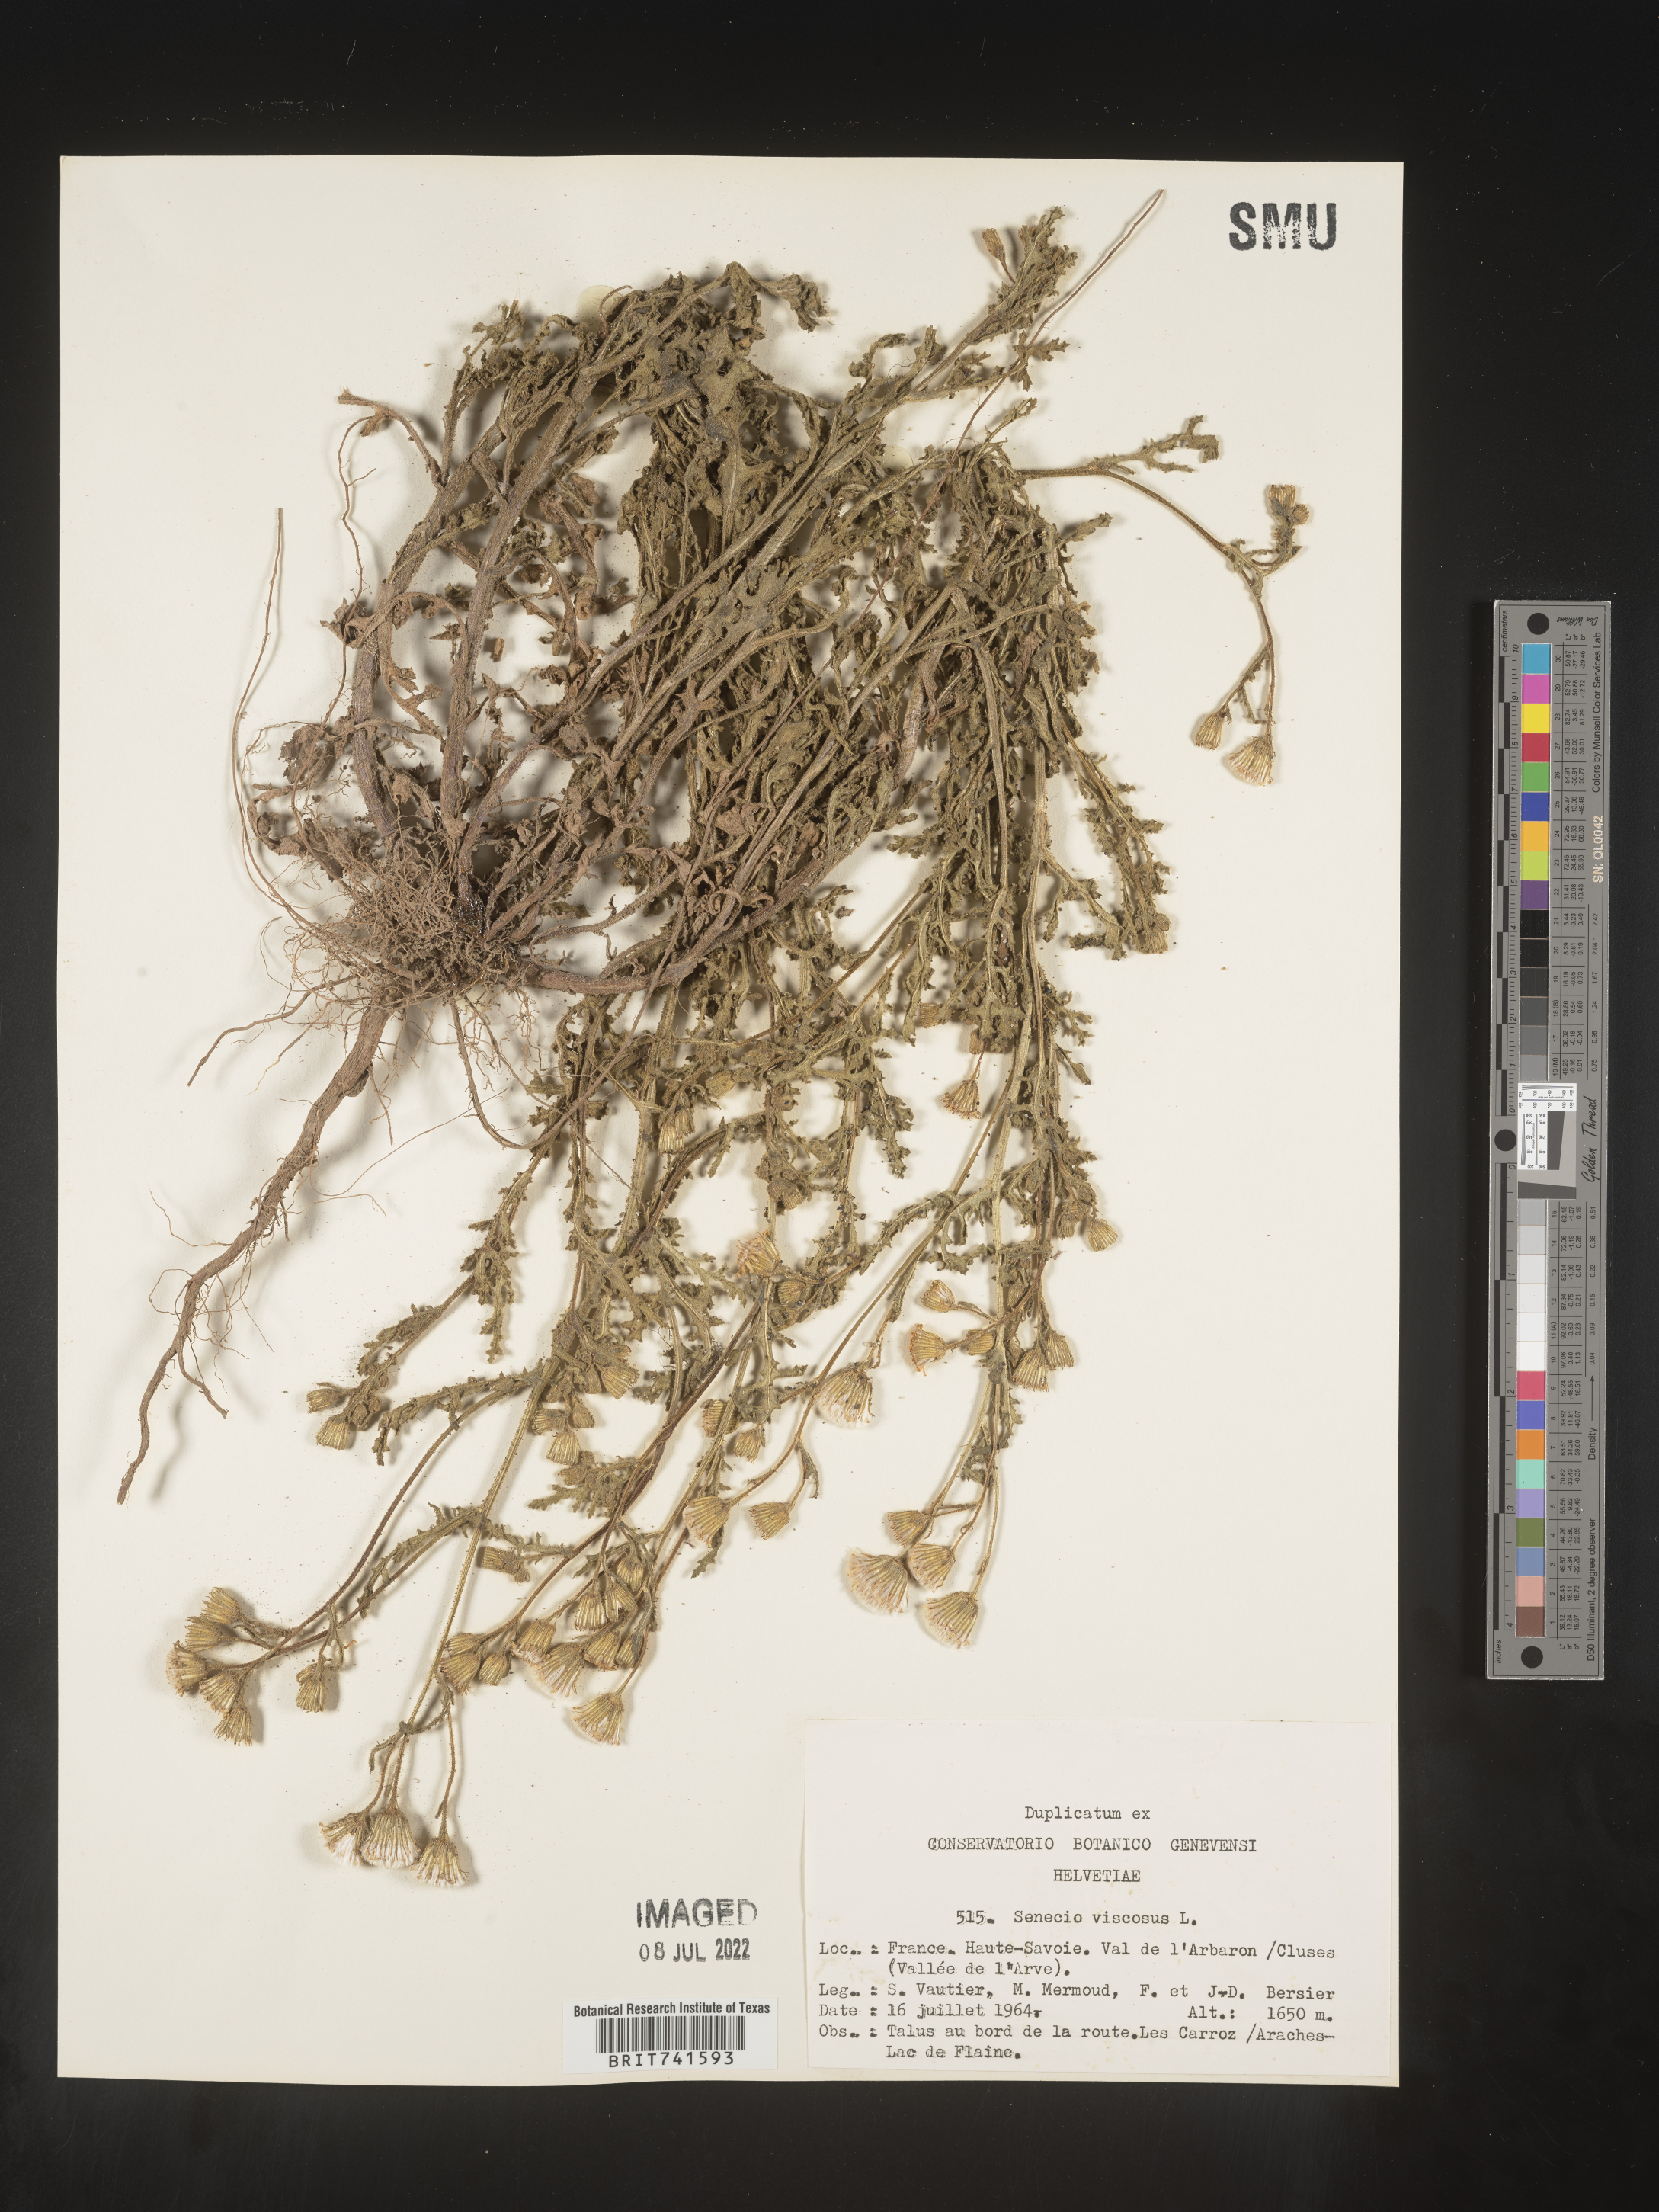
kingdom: Plantae
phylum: Tracheophyta
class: Magnoliopsida
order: Asterales
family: Asteraceae
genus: Senecio
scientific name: Senecio
